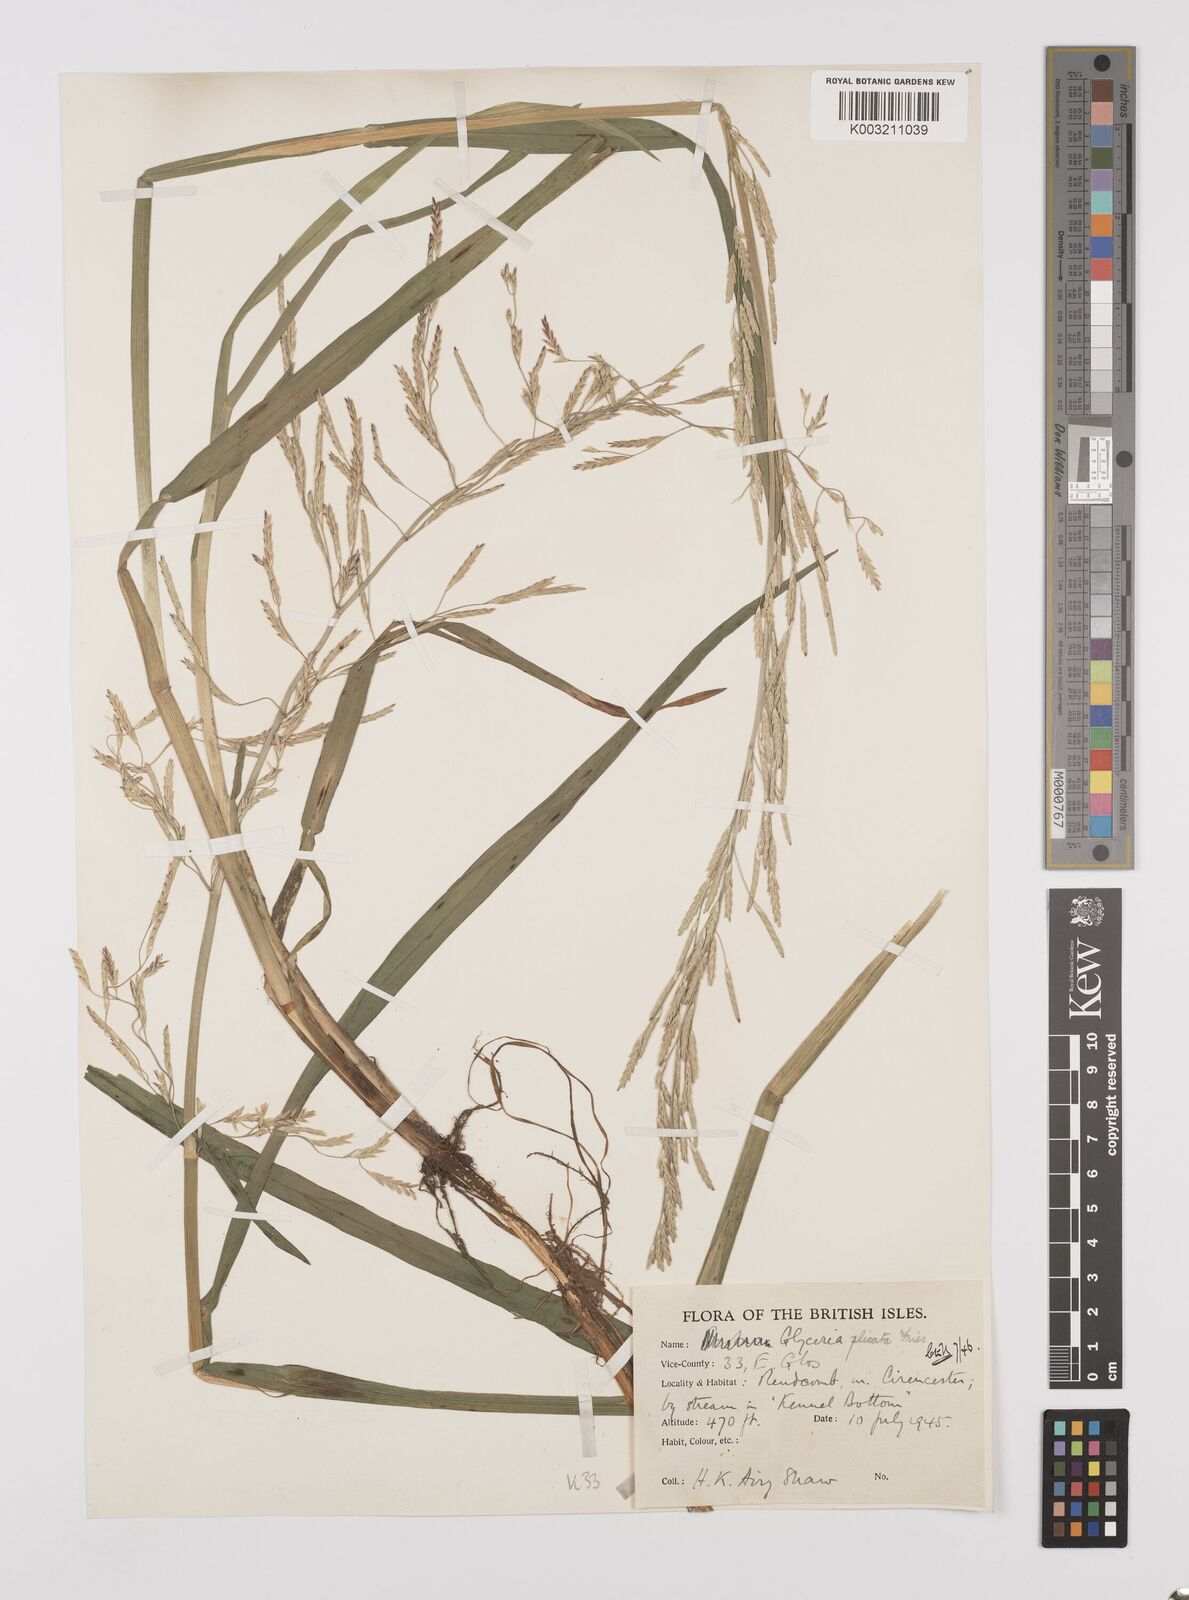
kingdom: Plantae
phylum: Tracheophyta
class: Liliopsida
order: Poales
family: Poaceae
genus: Glyceria
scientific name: Glyceria notata
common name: Plicate sweet-grass
